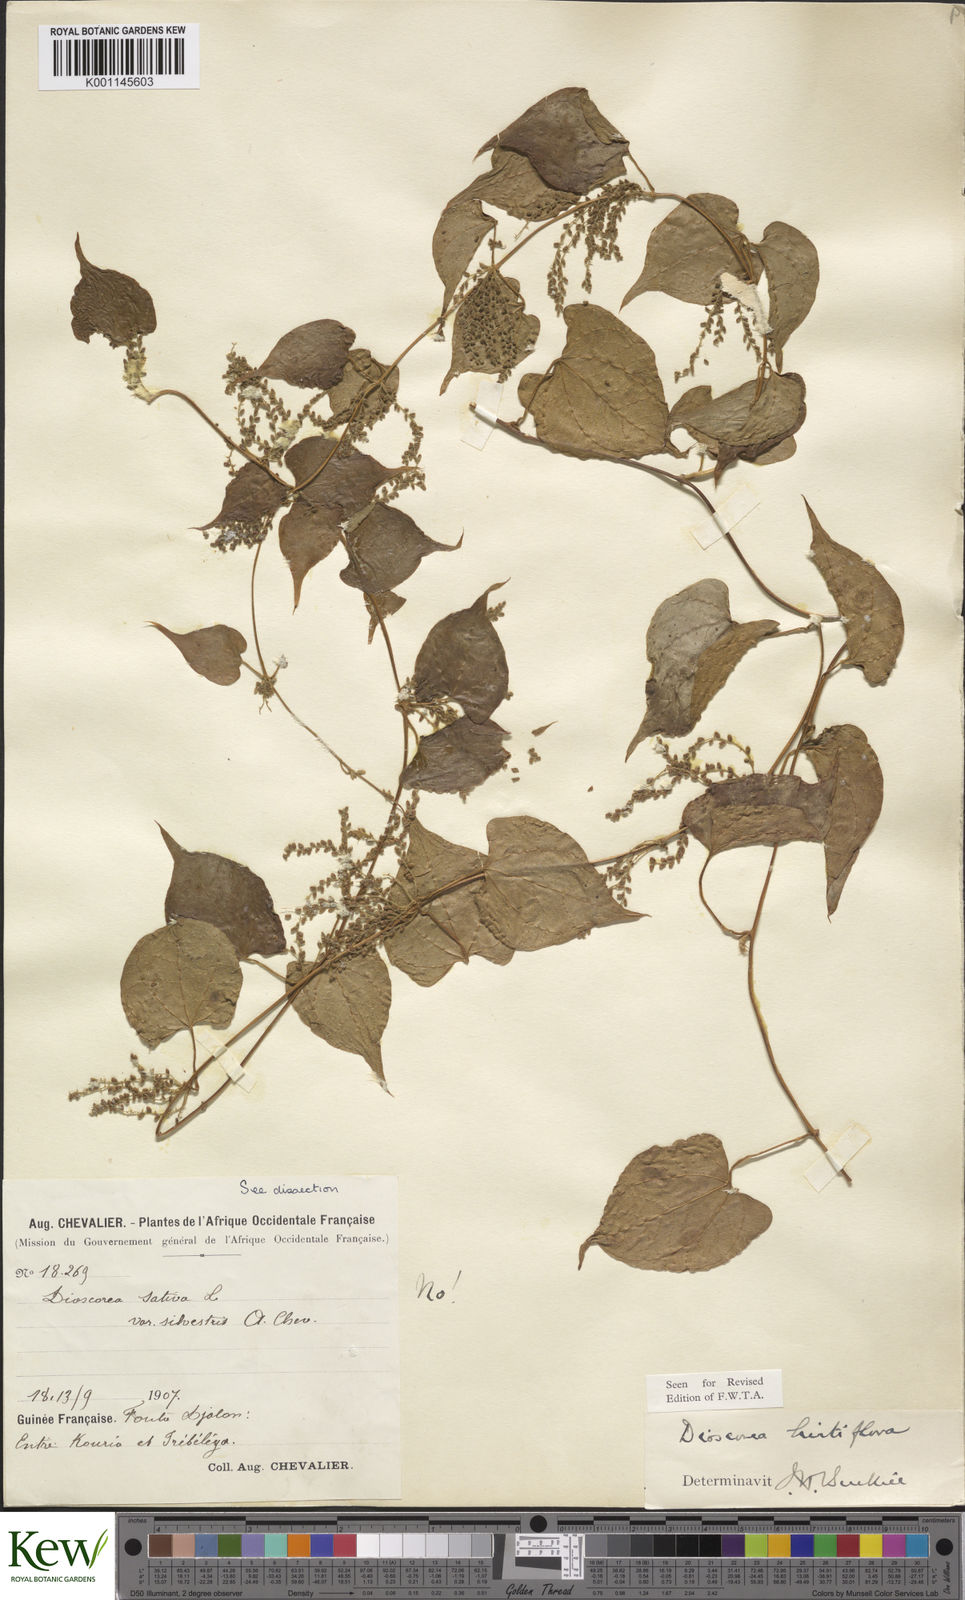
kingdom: Plantae
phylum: Tracheophyta
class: Liliopsida
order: Dioscoreales
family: Dioscoreaceae
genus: Dioscorea
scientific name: Dioscorea hirtiflora
